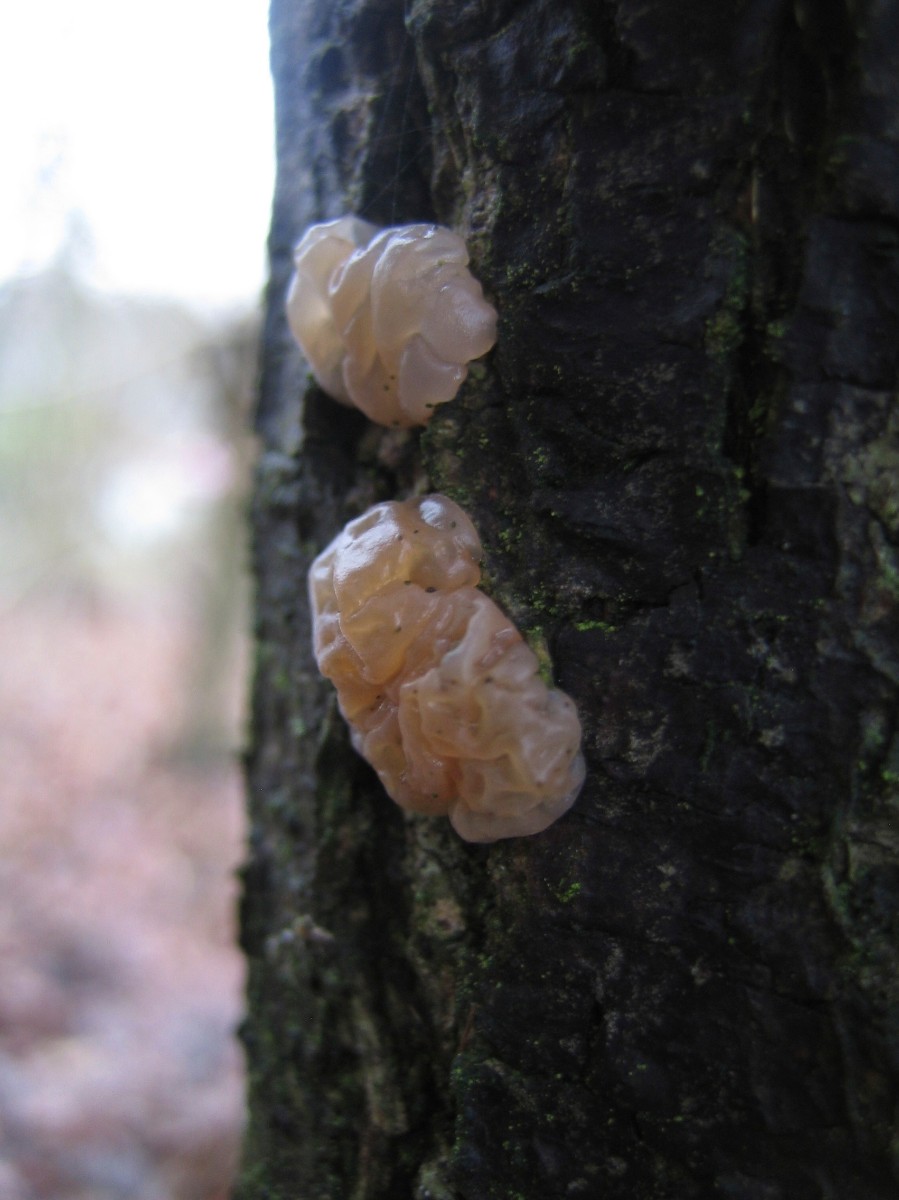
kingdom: Fungi
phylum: Basidiomycota
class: Agaricomycetes
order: Auriculariales
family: Hyaloriaceae
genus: Myxarium
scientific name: Myxarium
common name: bævretop
